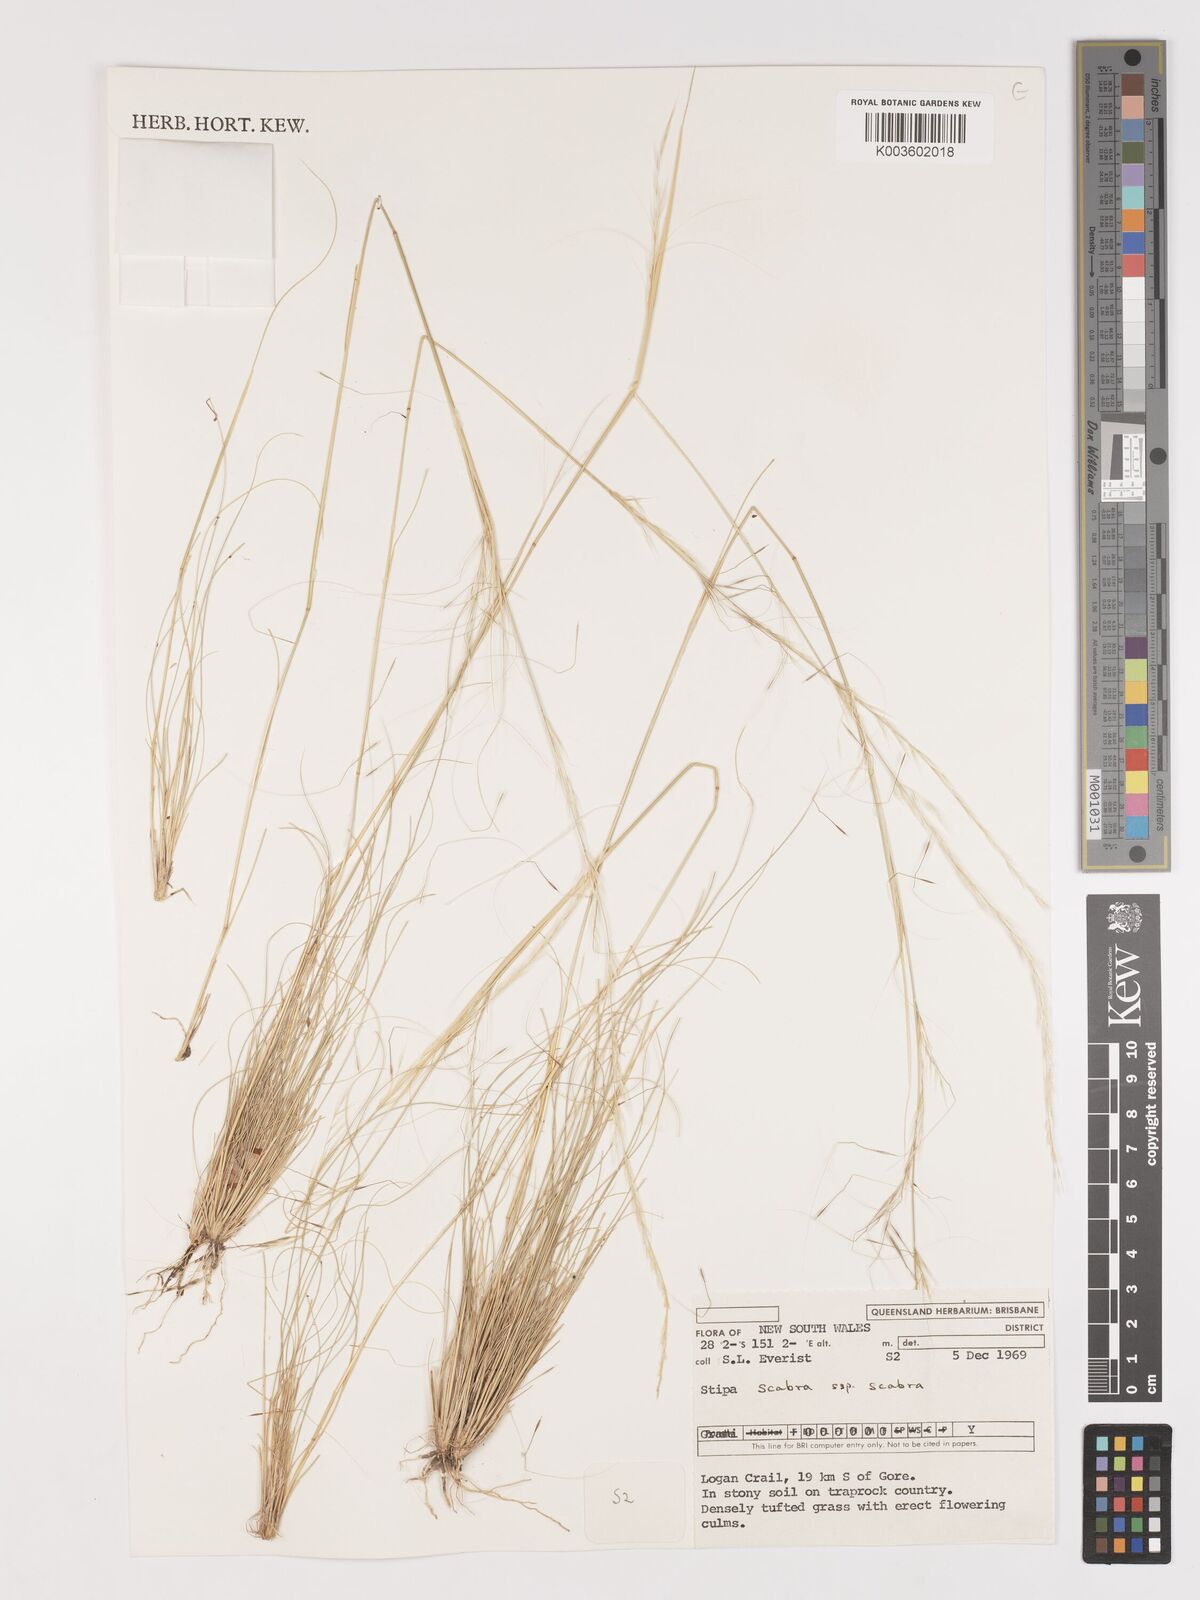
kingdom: Plantae
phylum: Tracheophyta
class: Liliopsida
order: Poales
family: Poaceae
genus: Austrostipa
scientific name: Austrostipa scabra
